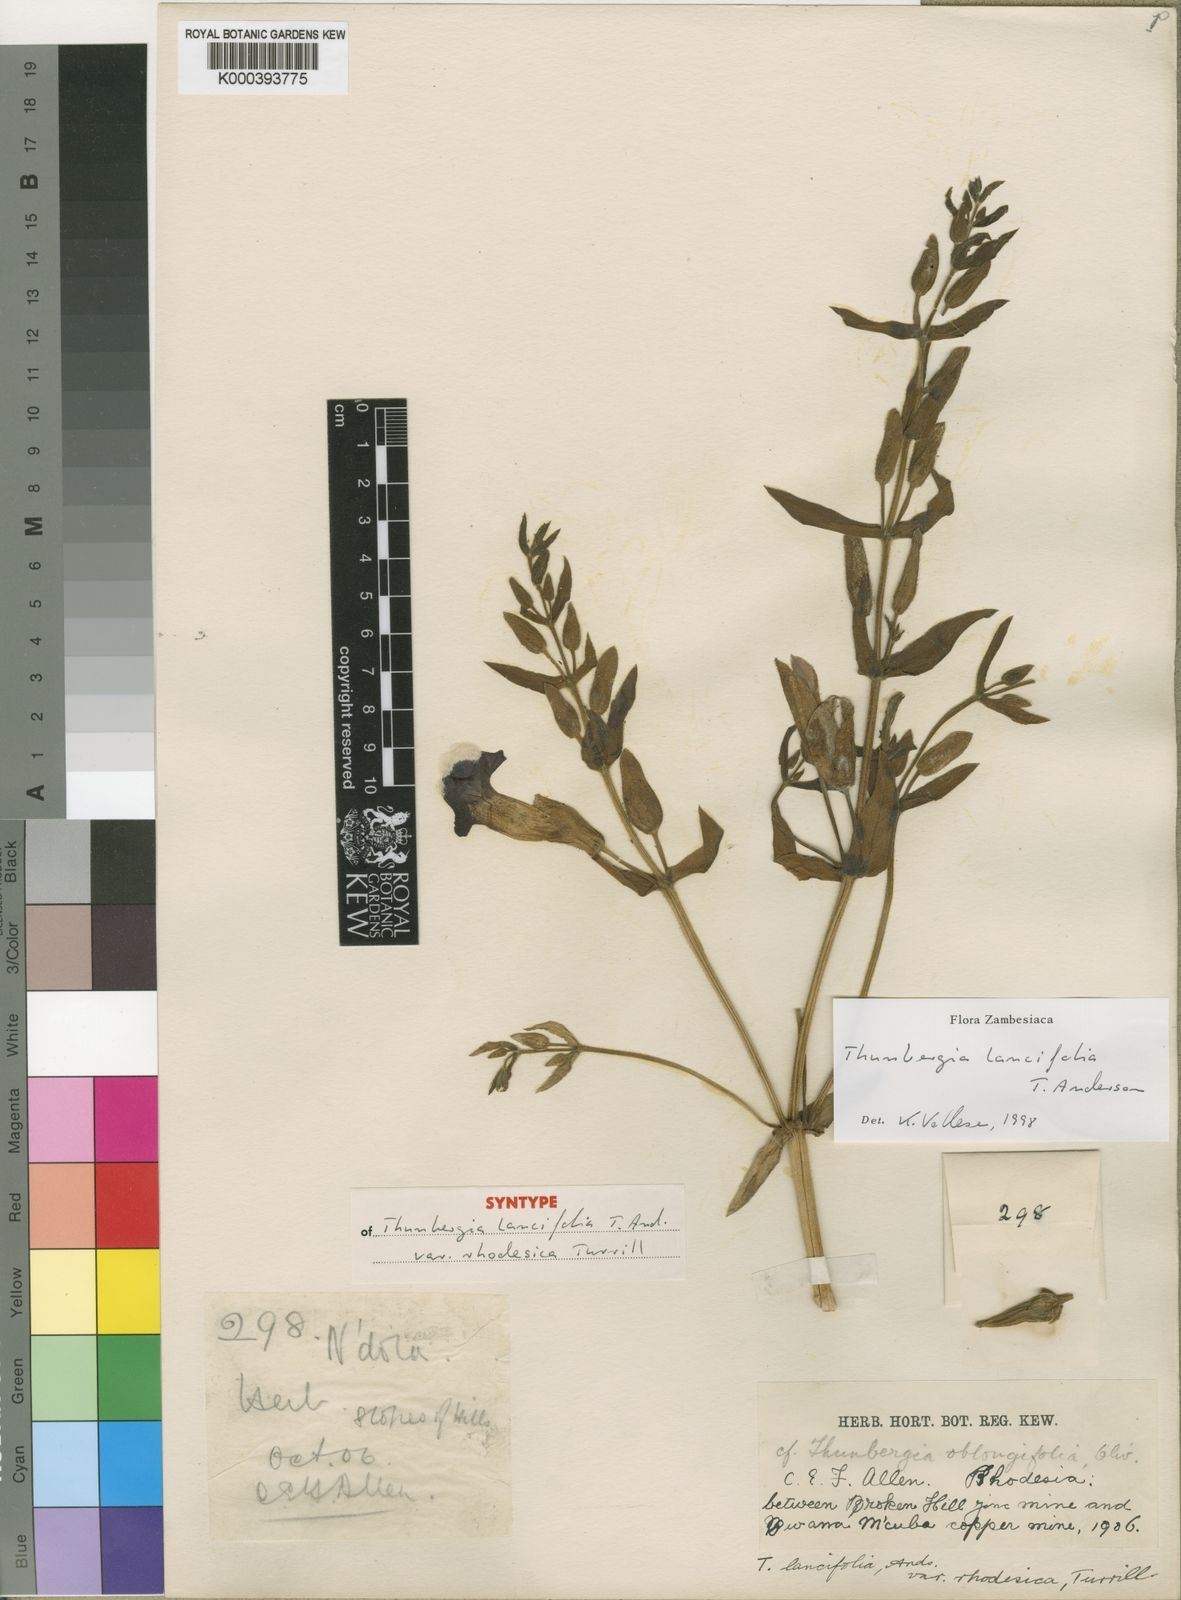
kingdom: Plantae
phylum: Tracheophyta
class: Magnoliopsida
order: Lamiales
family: Acanthaceae
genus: Thunbergia
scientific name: Thunbergia lancifolia
